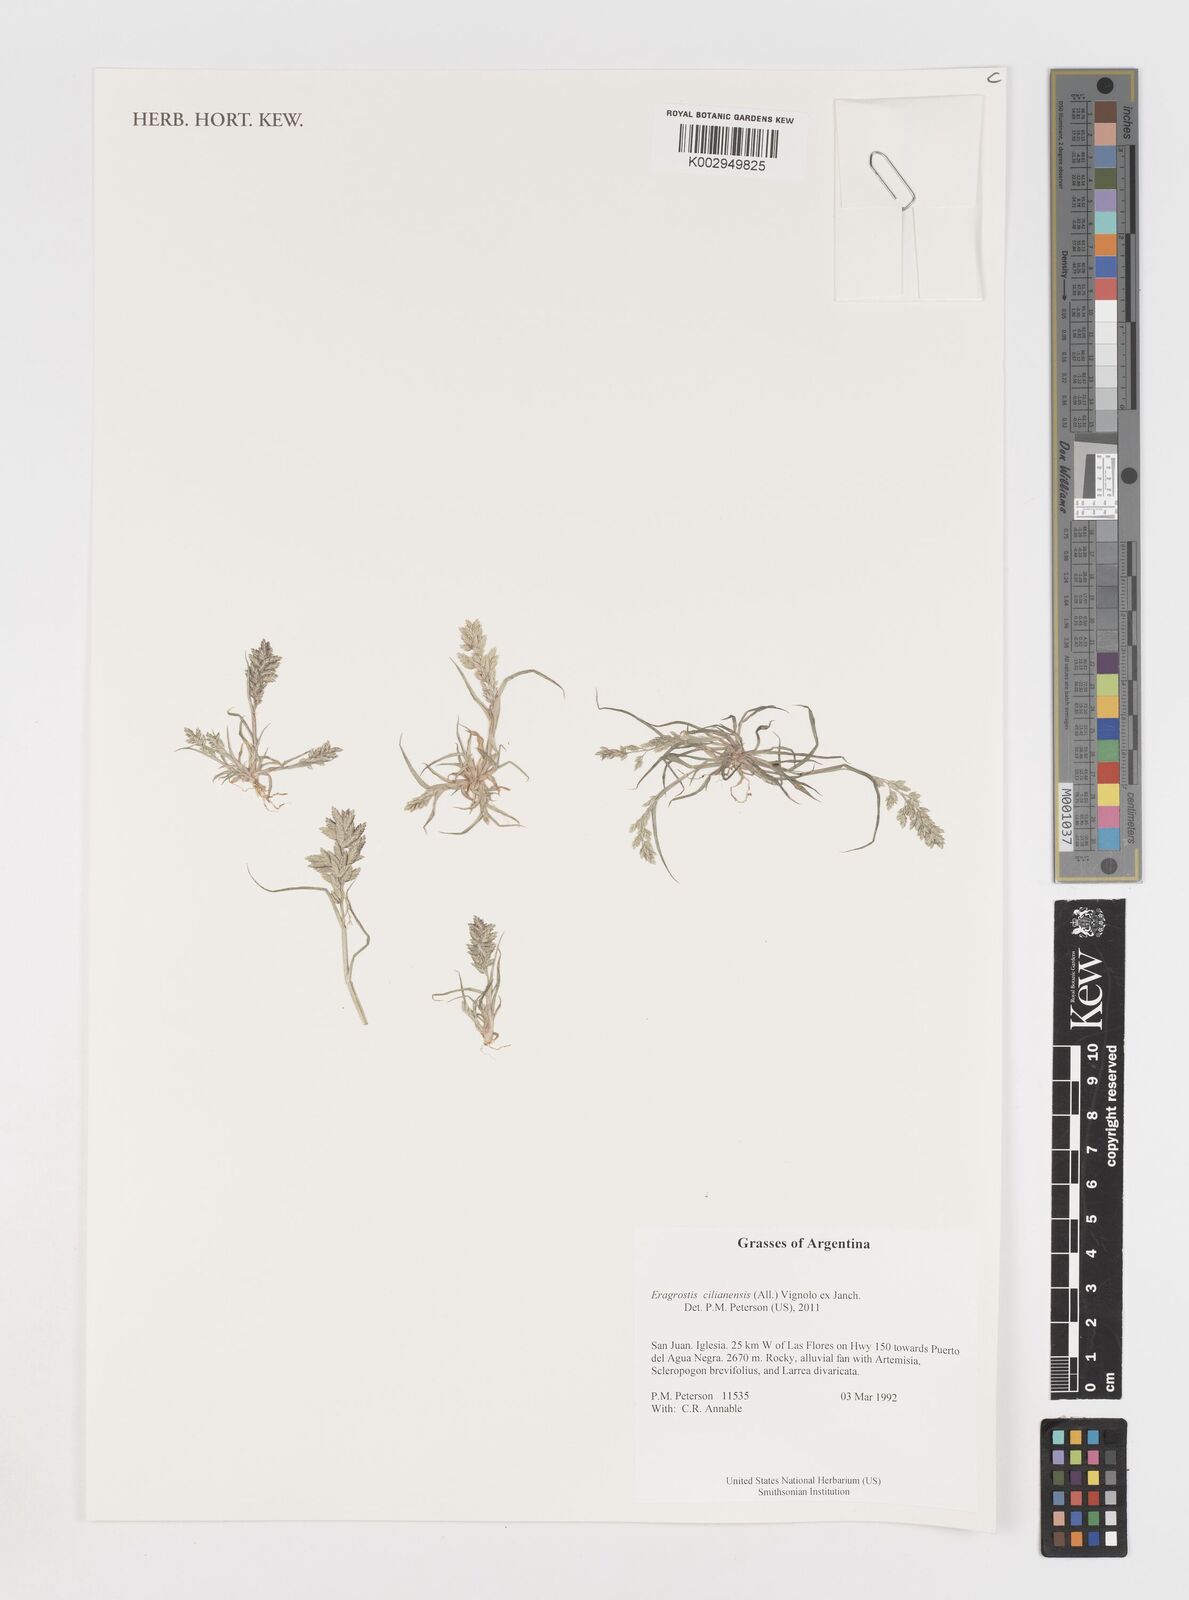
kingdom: Plantae
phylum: Tracheophyta
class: Liliopsida
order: Poales
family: Poaceae
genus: Eragrostis
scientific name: Eragrostis cilianensis
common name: Stinkgrass
